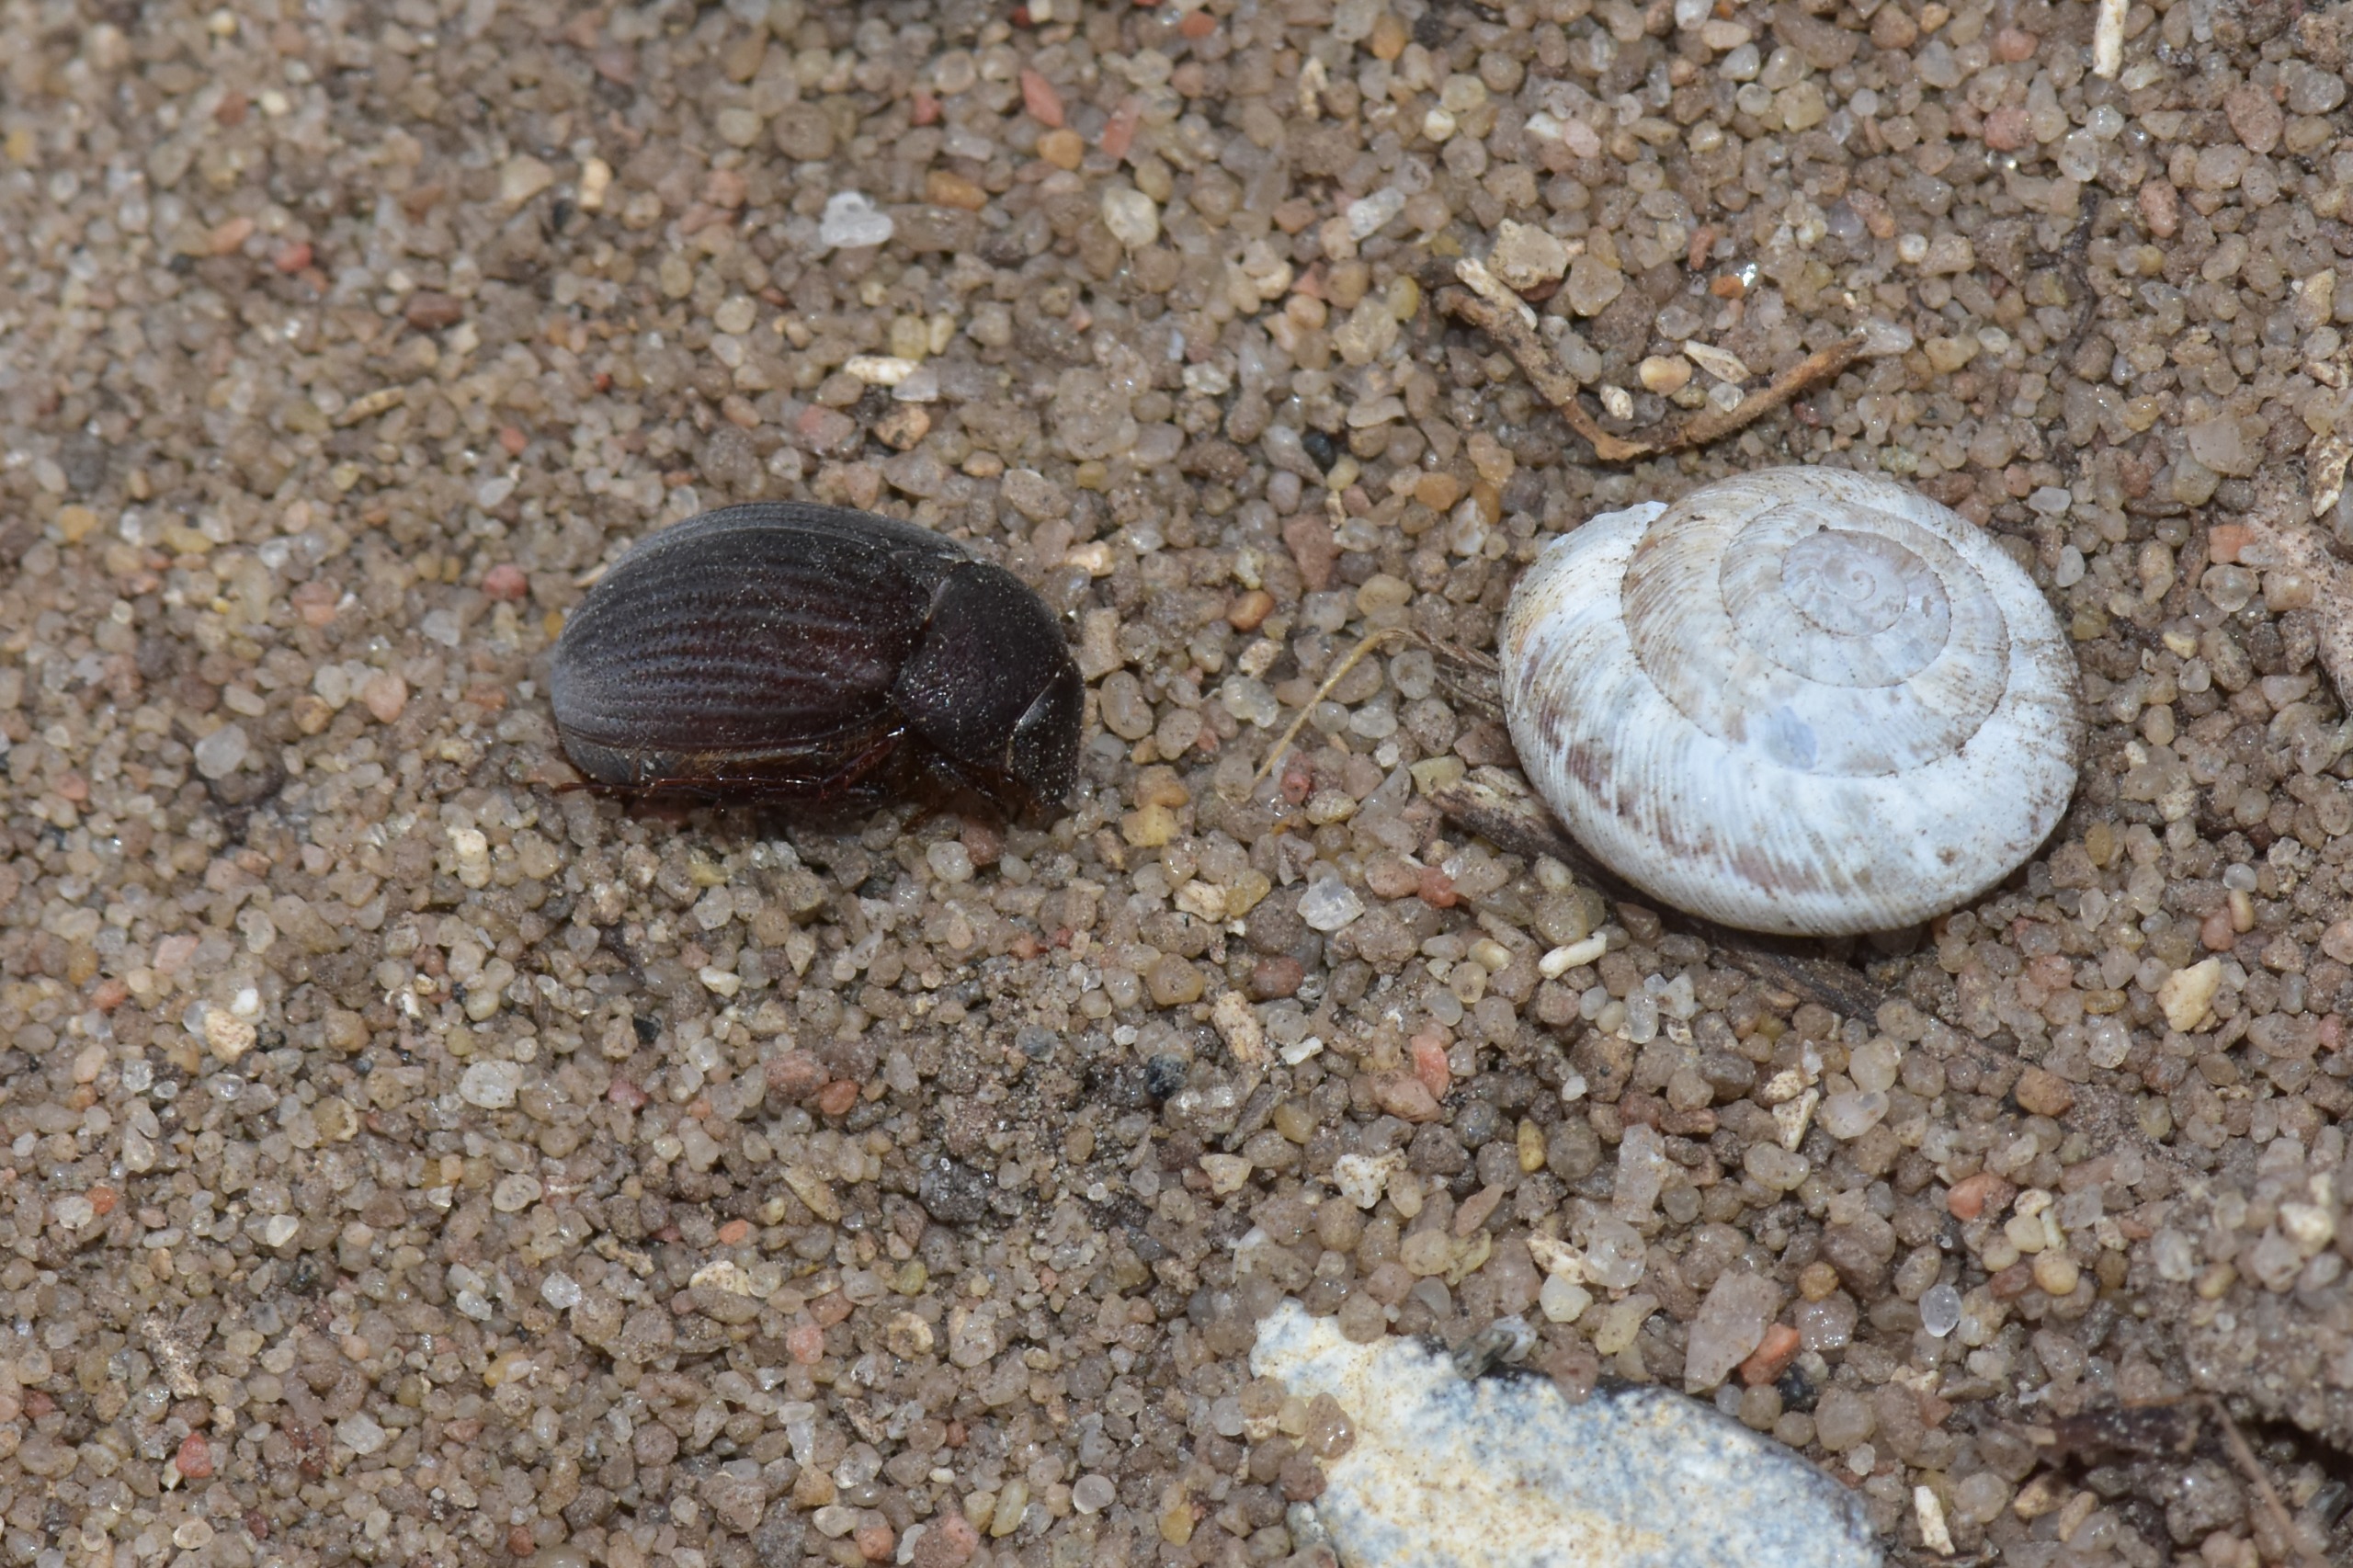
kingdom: Animalia
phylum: Arthropoda
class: Insecta
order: Coleoptera
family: Scarabaeidae
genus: Maladera
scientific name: Maladera holosericea
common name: Skræntoldenborre
